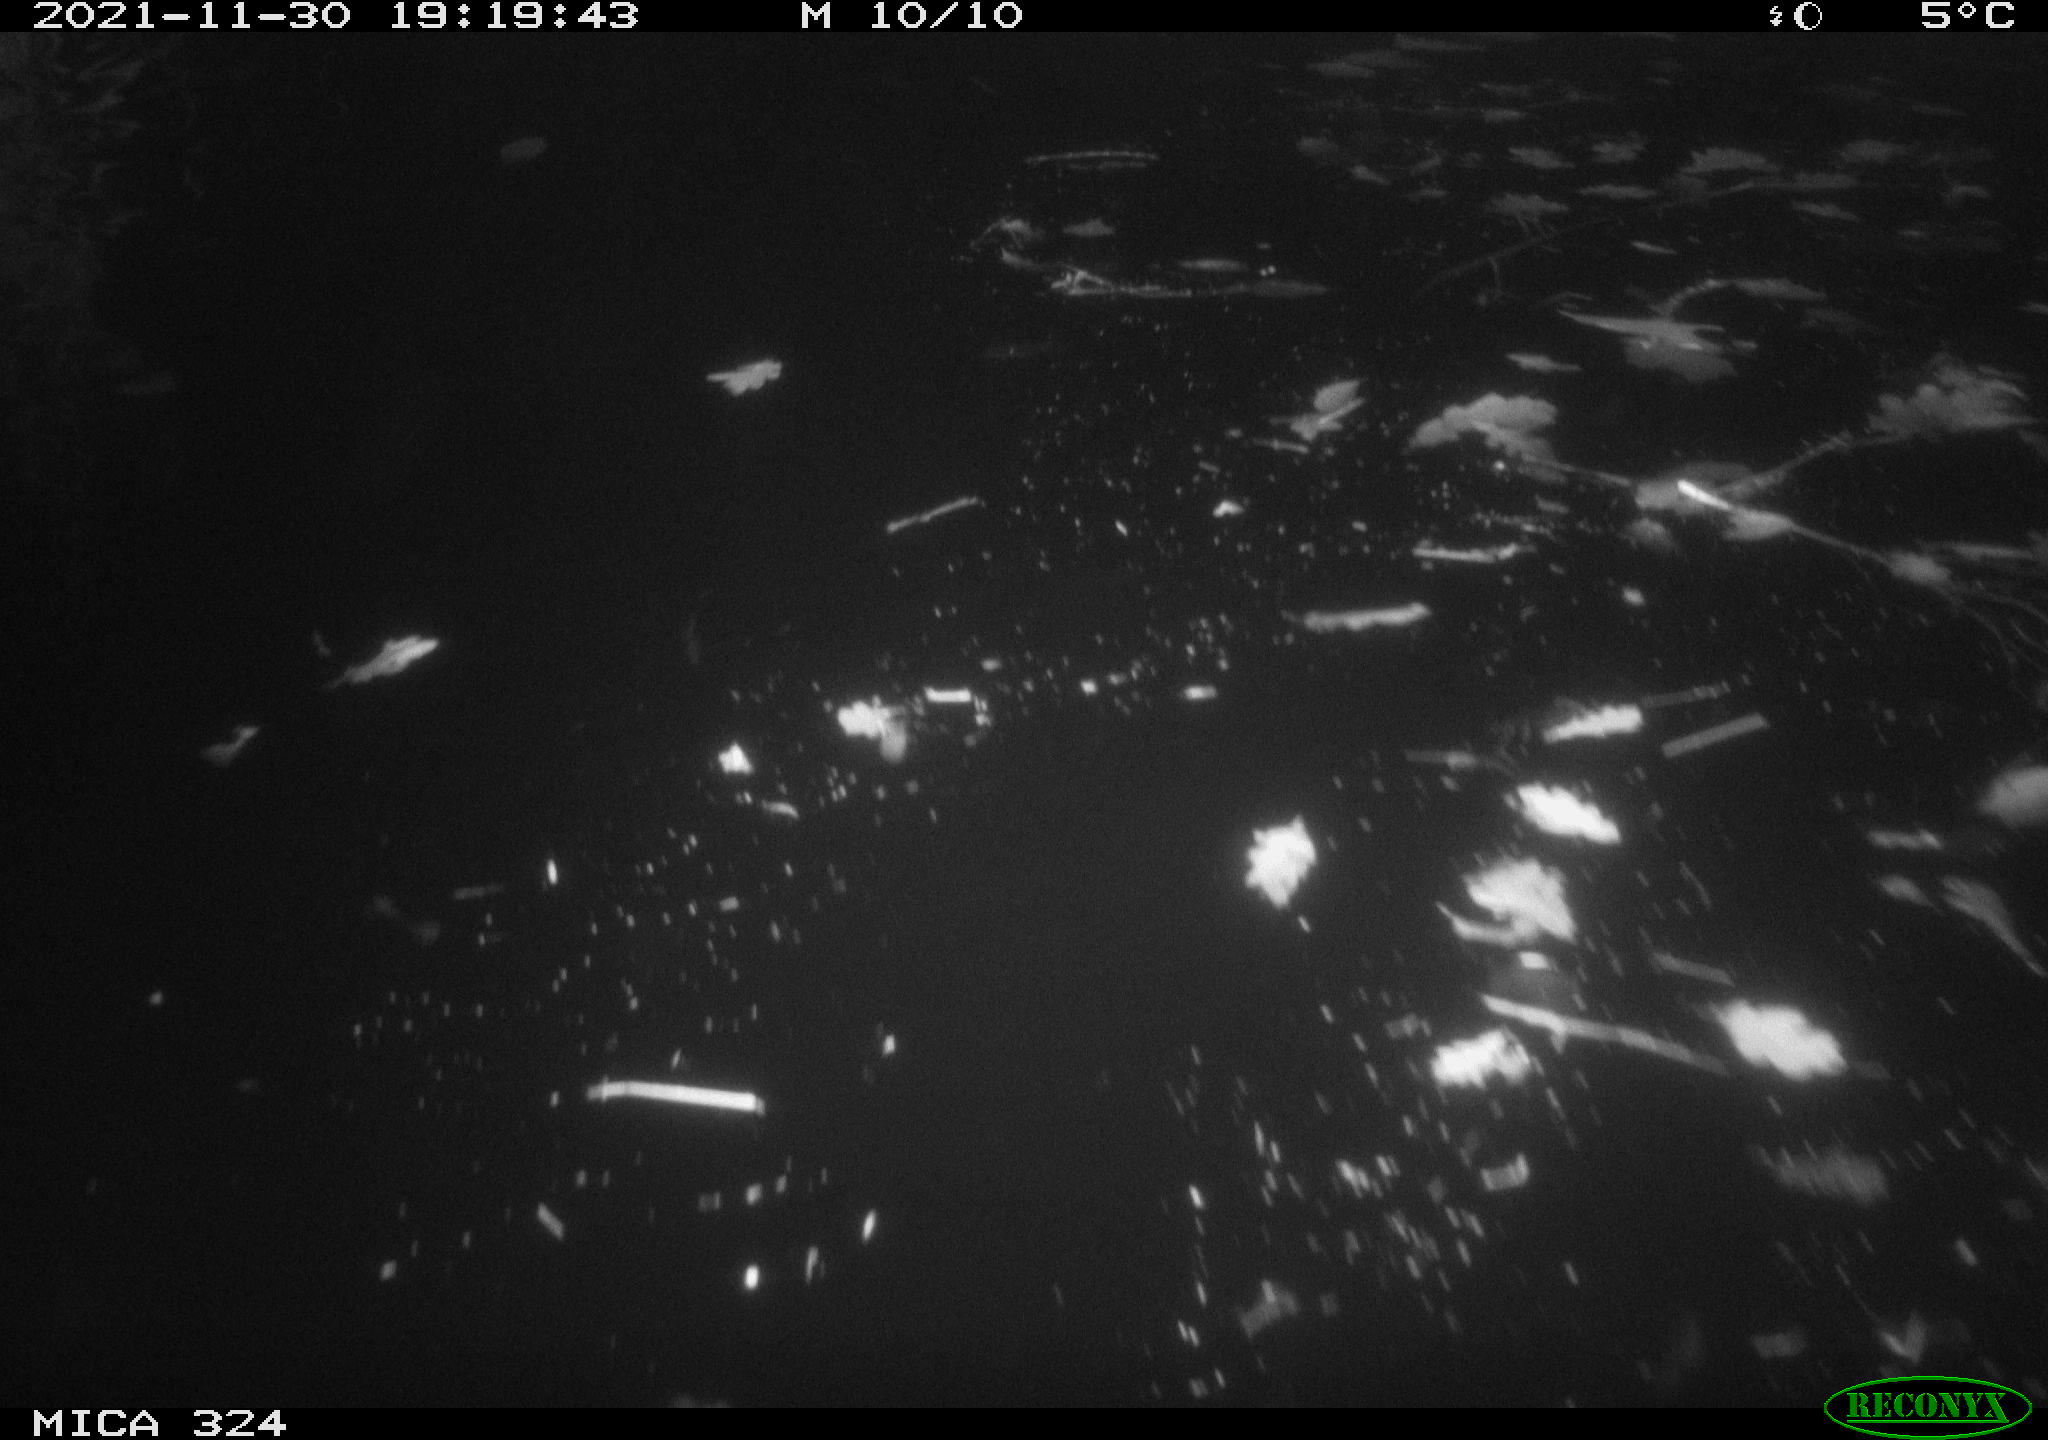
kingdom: Animalia
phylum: Chordata
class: Mammalia
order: Rodentia
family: Cricetidae
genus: Ondatra
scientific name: Ondatra zibethicus
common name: Muskrat
